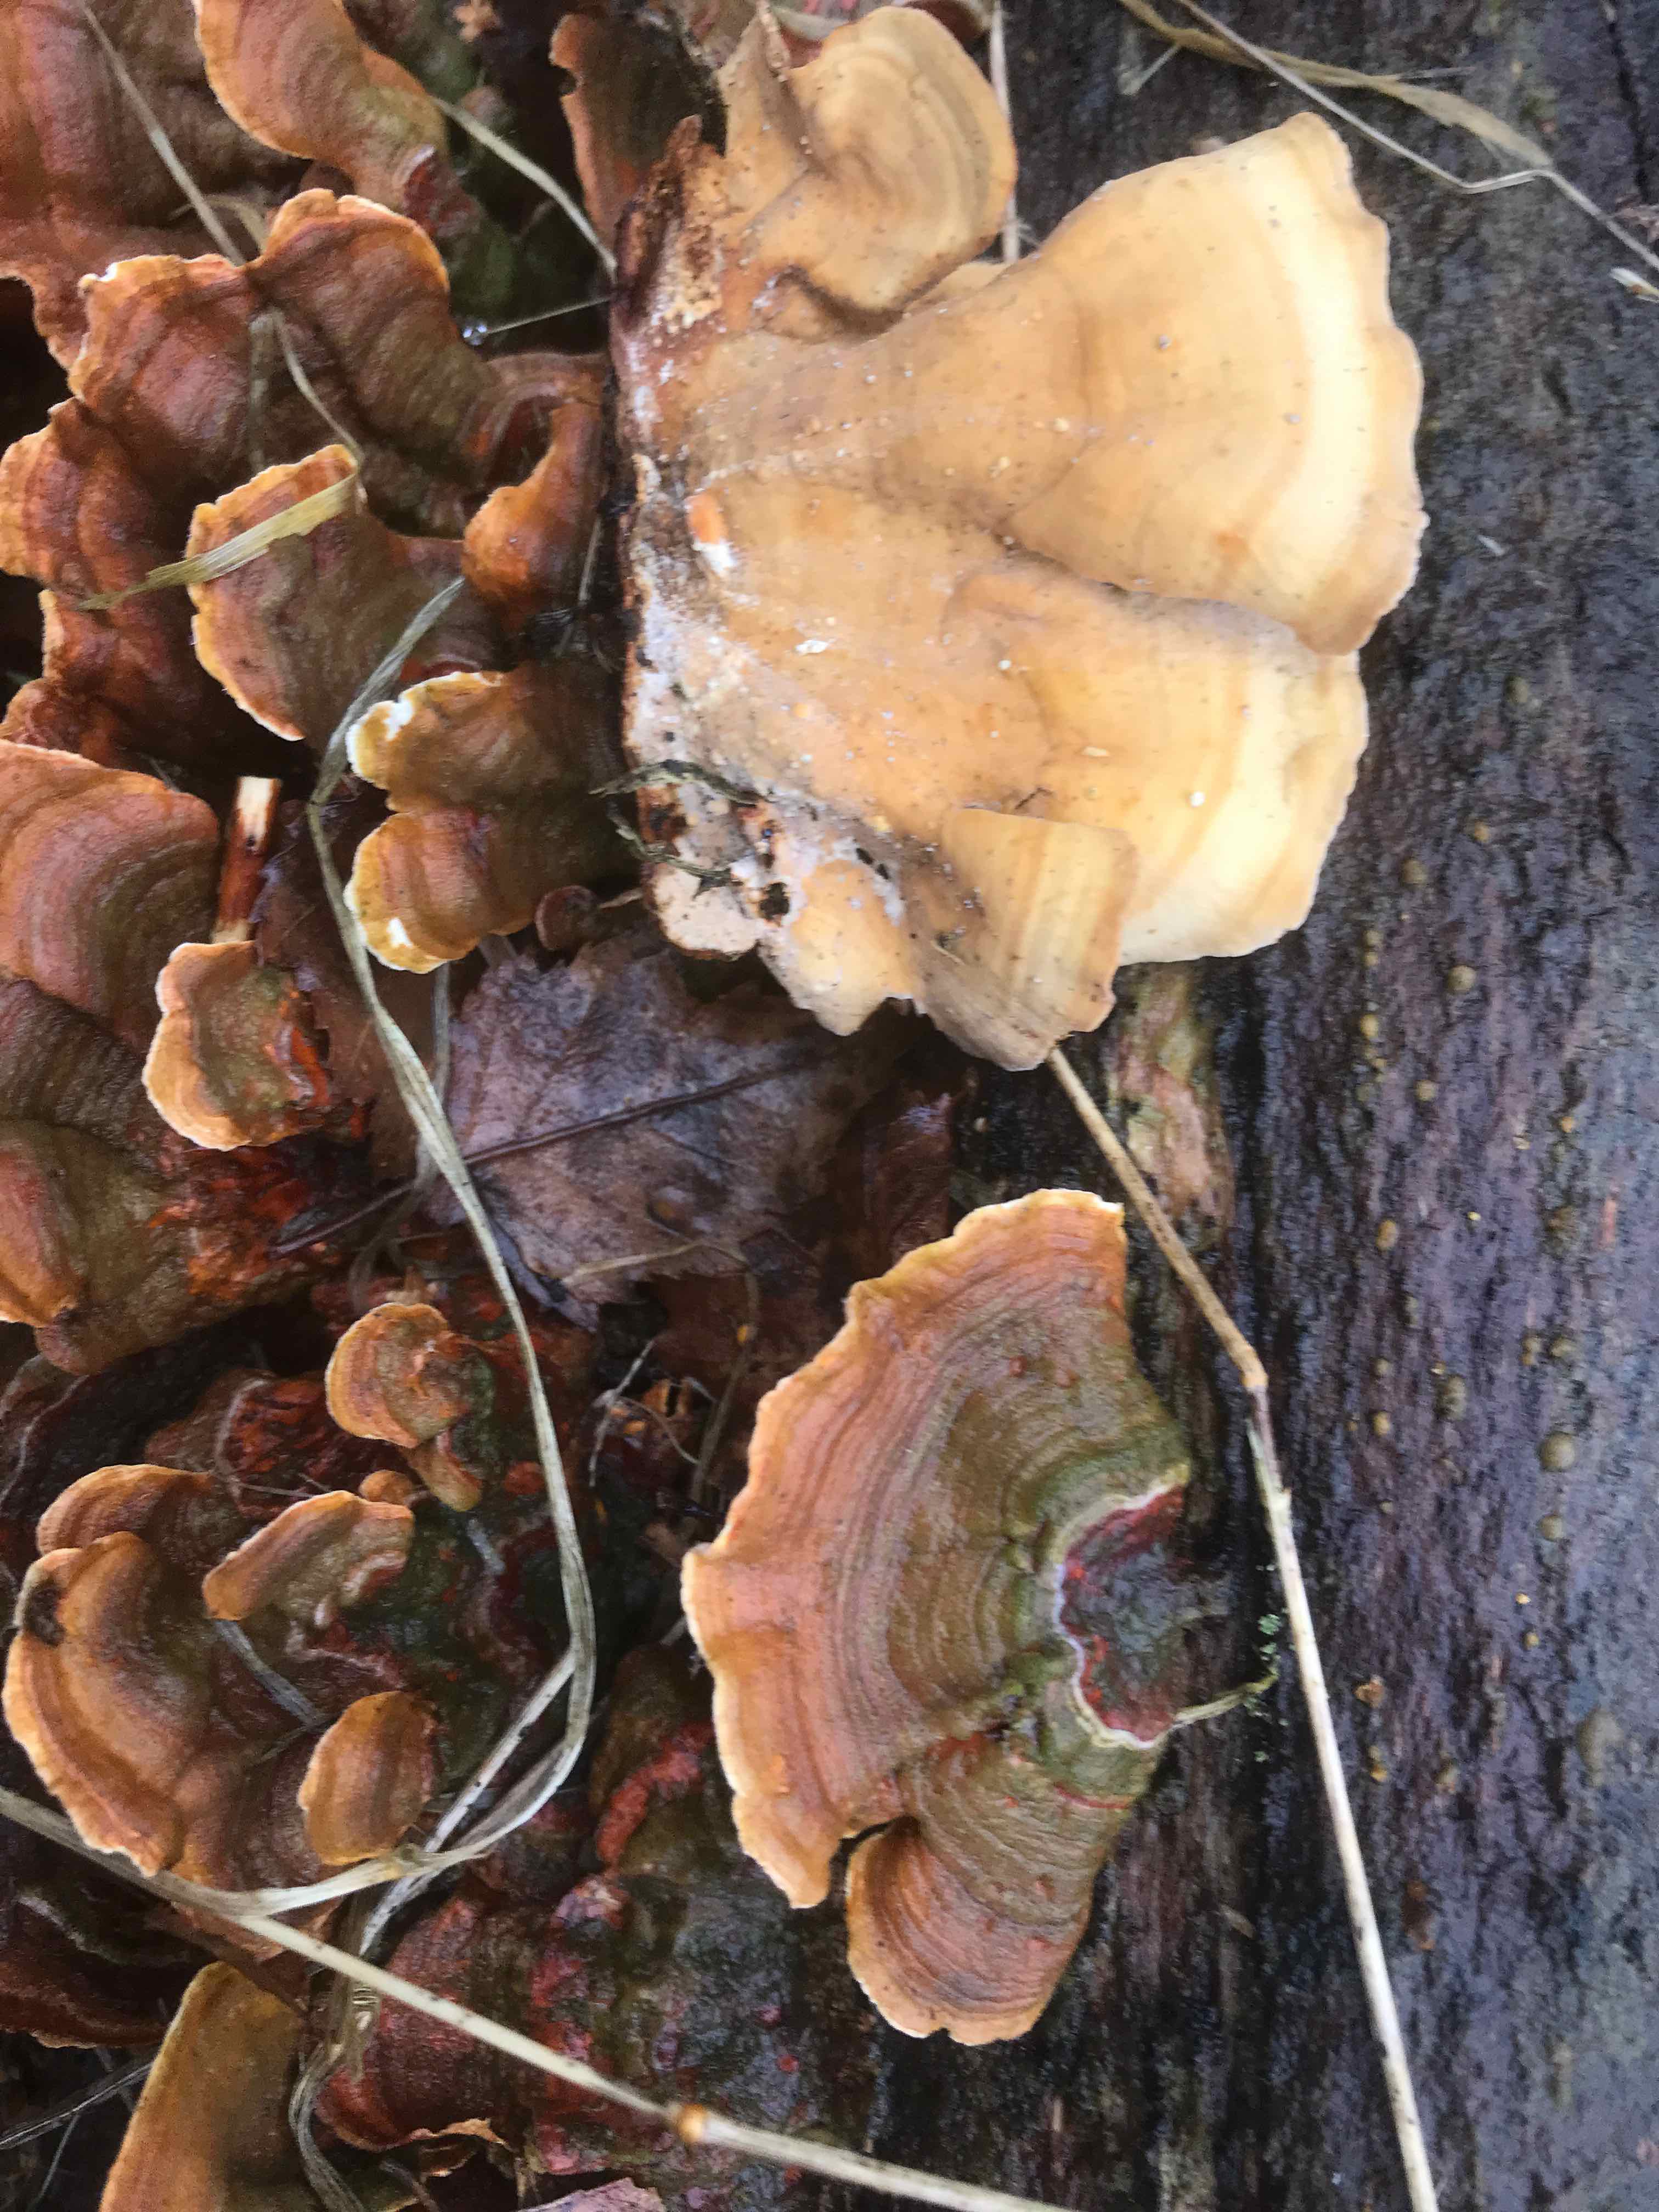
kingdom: Fungi
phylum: Basidiomycota
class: Agaricomycetes
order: Russulales
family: Stereaceae
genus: Stereum
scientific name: Stereum subtomentosum
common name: smuk lædersvamp
